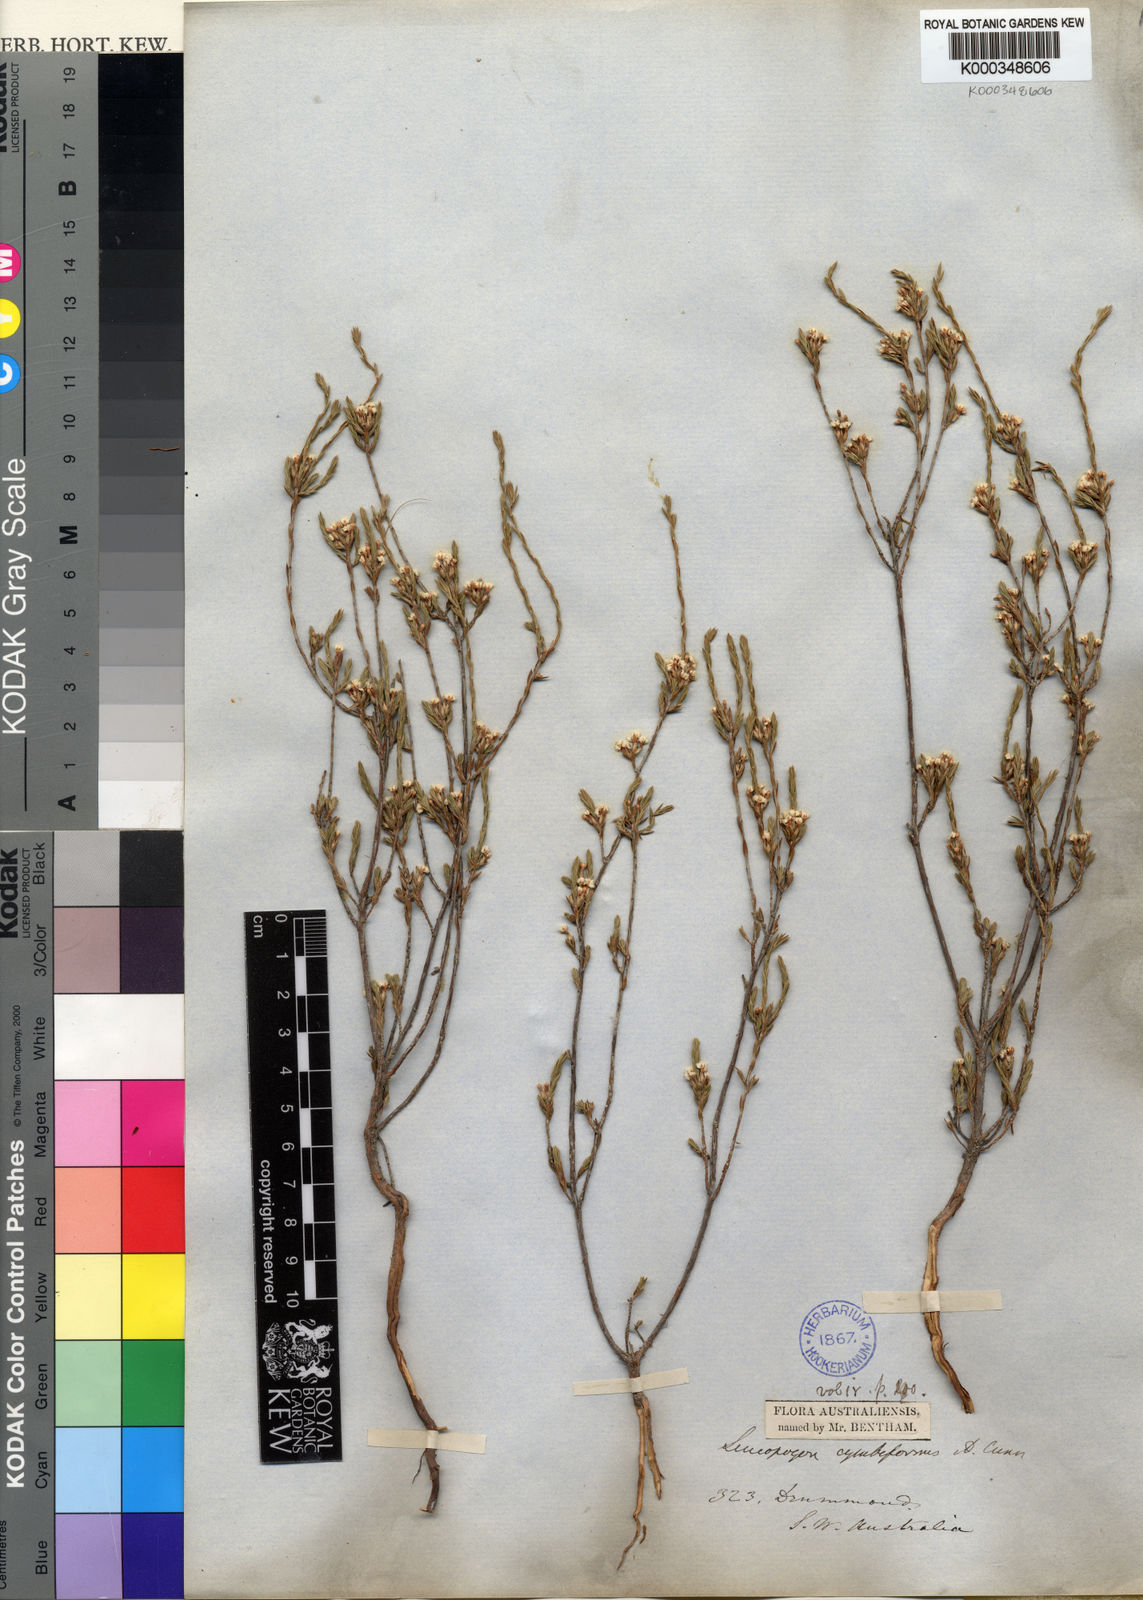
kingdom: Plantae
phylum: Tracheophyta
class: Magnoliopsida
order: Ericales
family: Ericaceae
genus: Styphelia
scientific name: Styphelia cymbiformis
